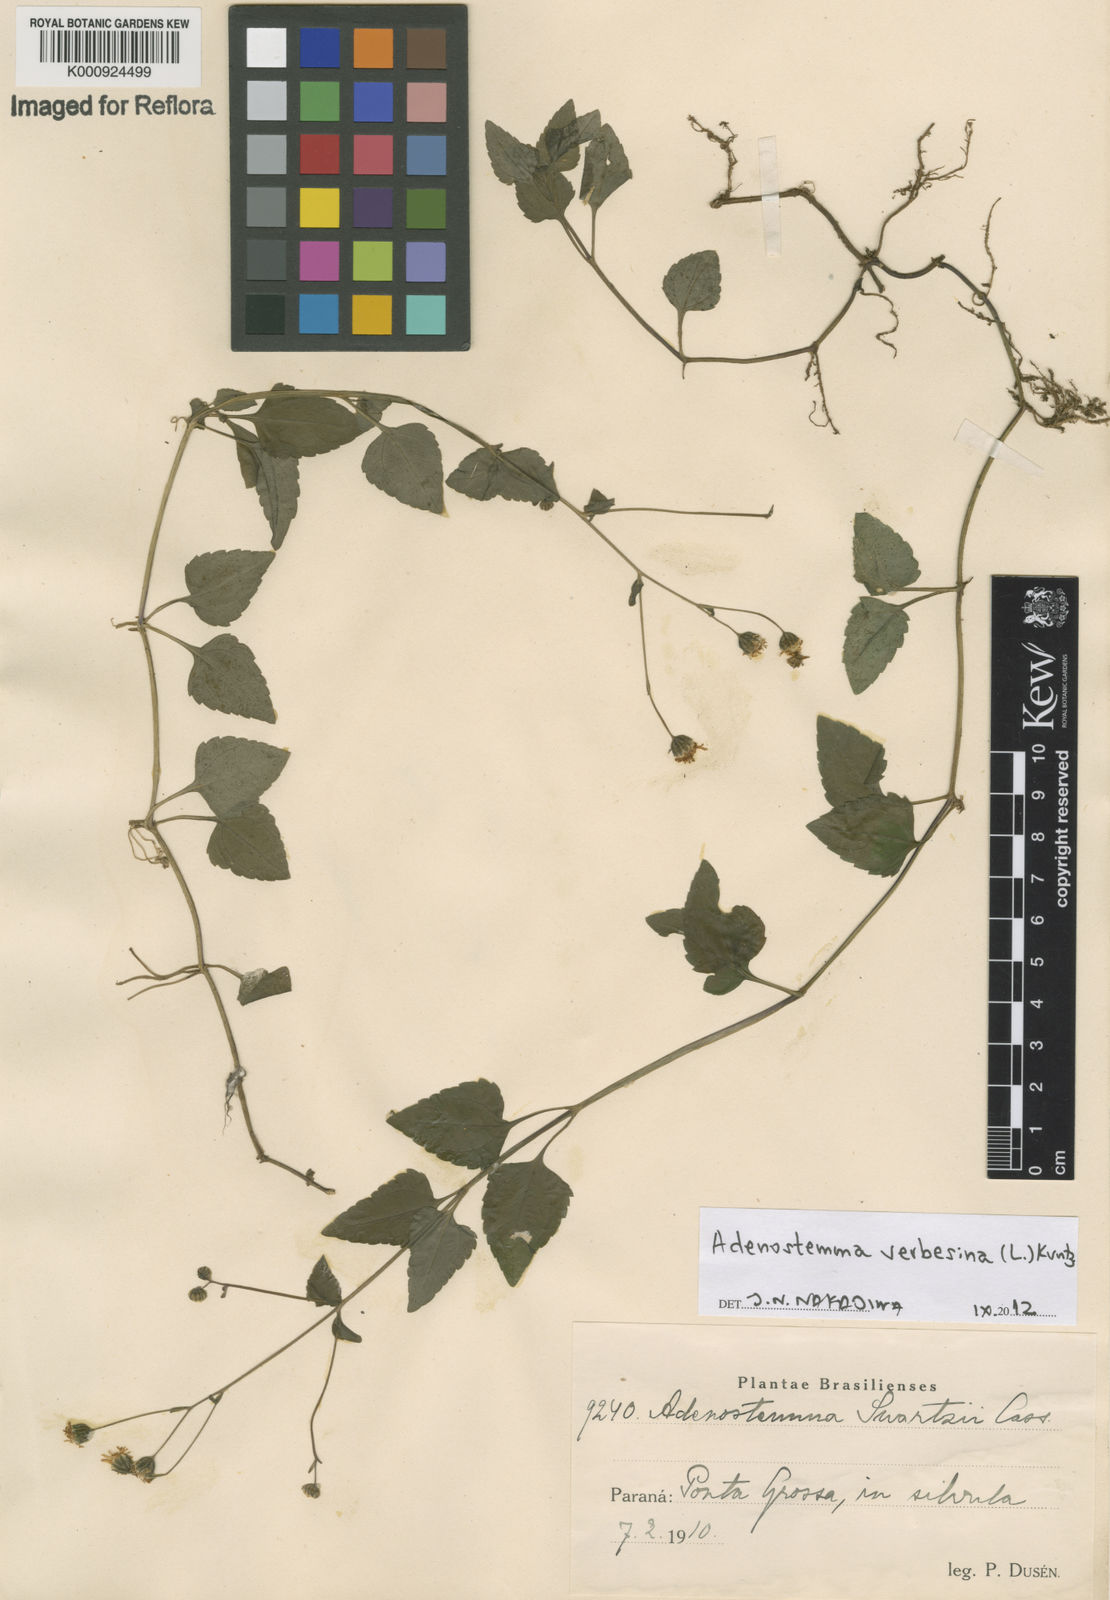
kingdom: Plantae
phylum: Tracheophyta
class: Magnoliopsida
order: Asterales
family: Asteraceae
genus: Adenostemma
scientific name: Adenostemma
